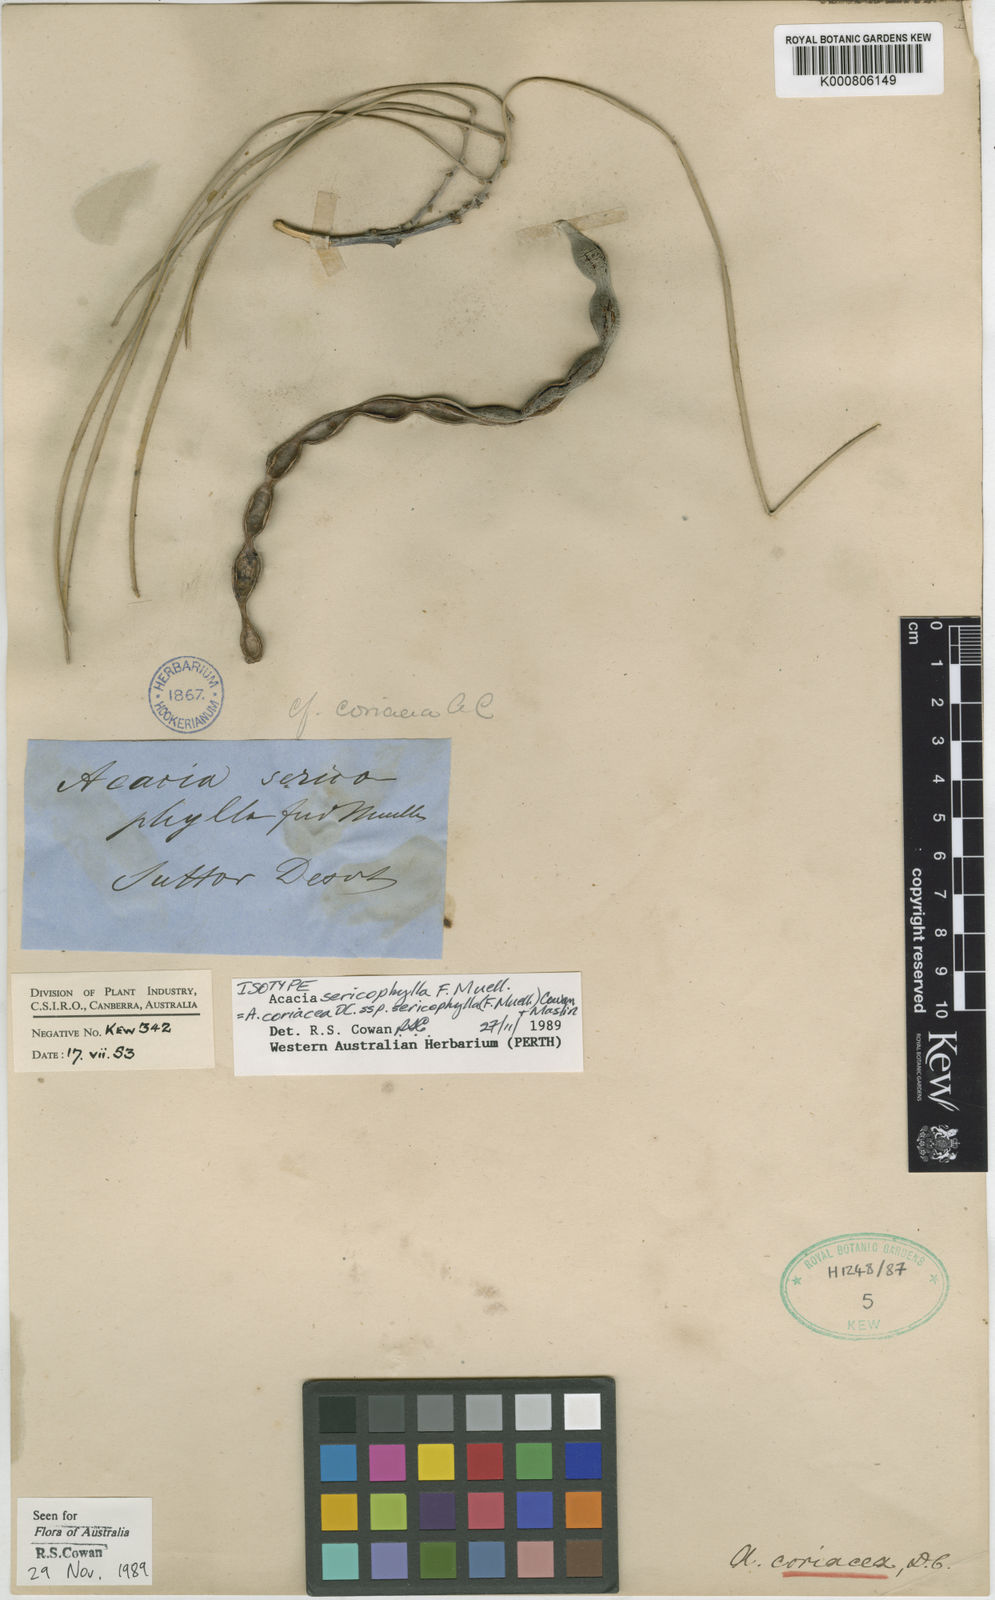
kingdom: Plantae
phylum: Tracheophyta
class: Magnoliopsida
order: Fabales
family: Fabaceae
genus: Acacia
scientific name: Acacia coriacea
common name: Desert-oak
